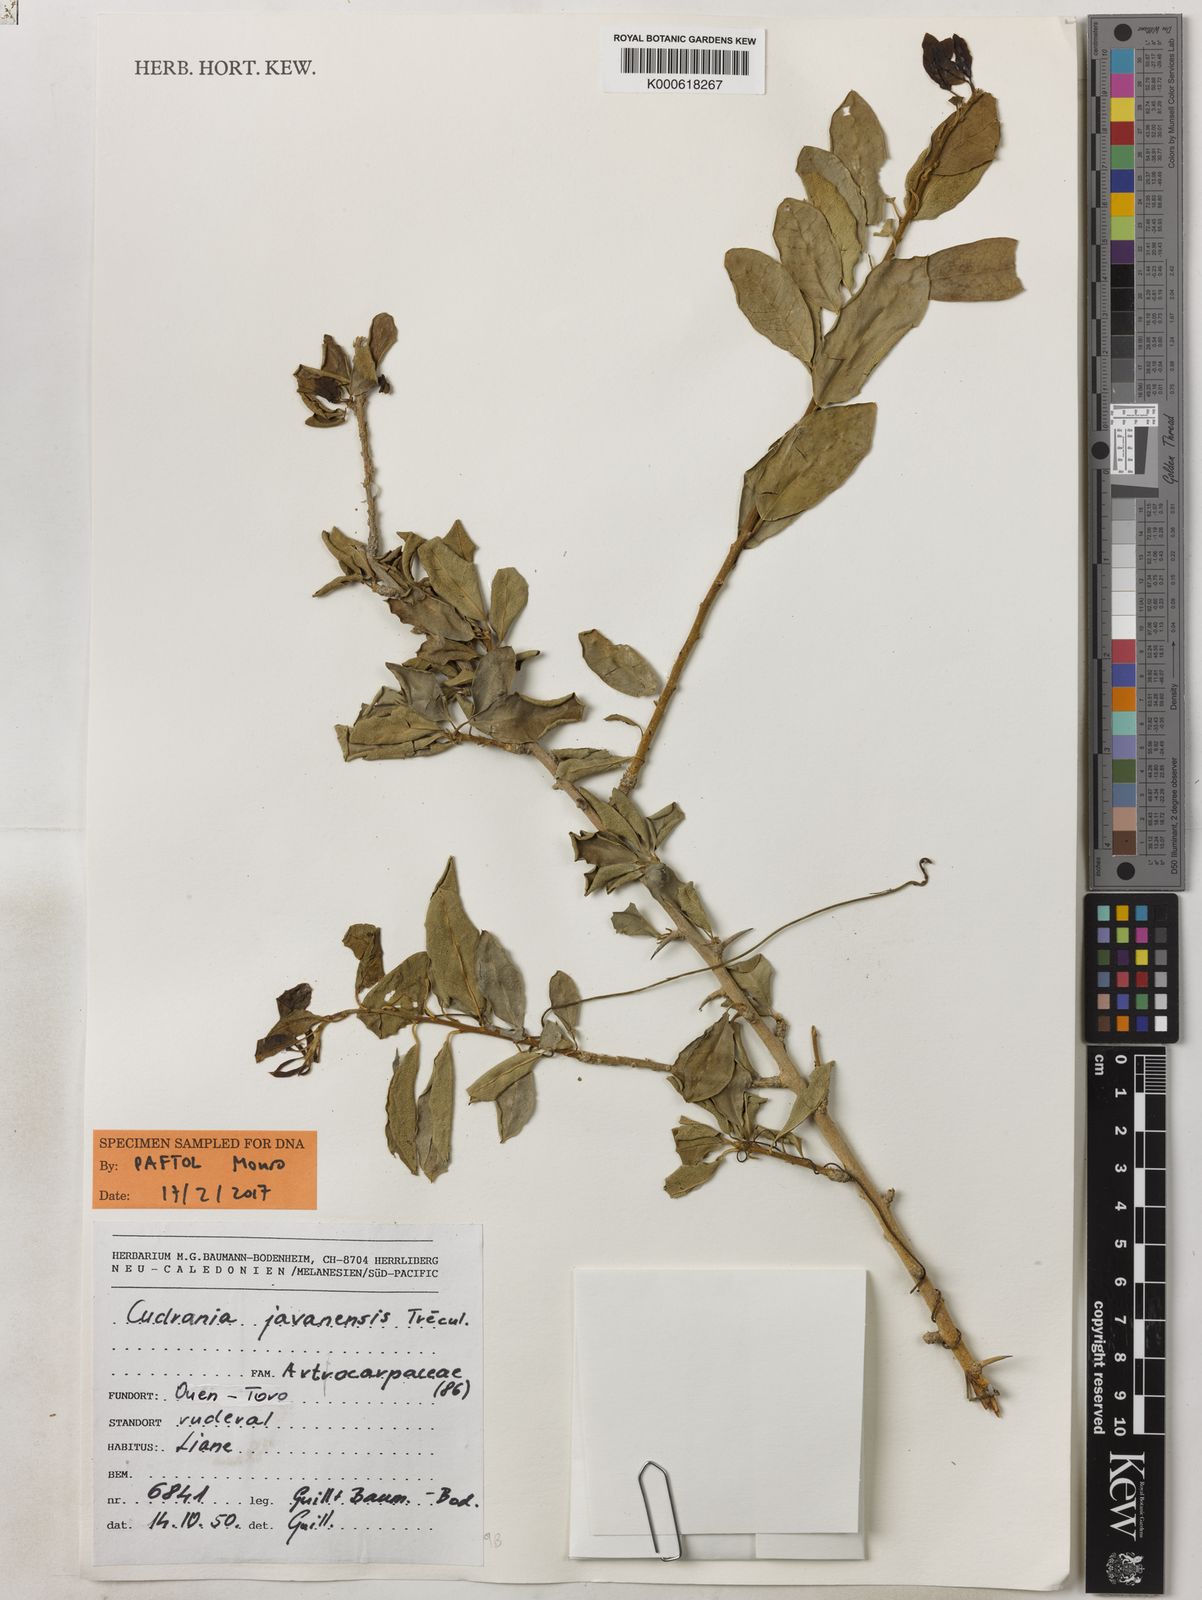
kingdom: Plantae
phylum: Tracheophyta
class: Magnoliopsida
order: Rosales
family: Moraceae
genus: Maclura
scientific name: Maclura
